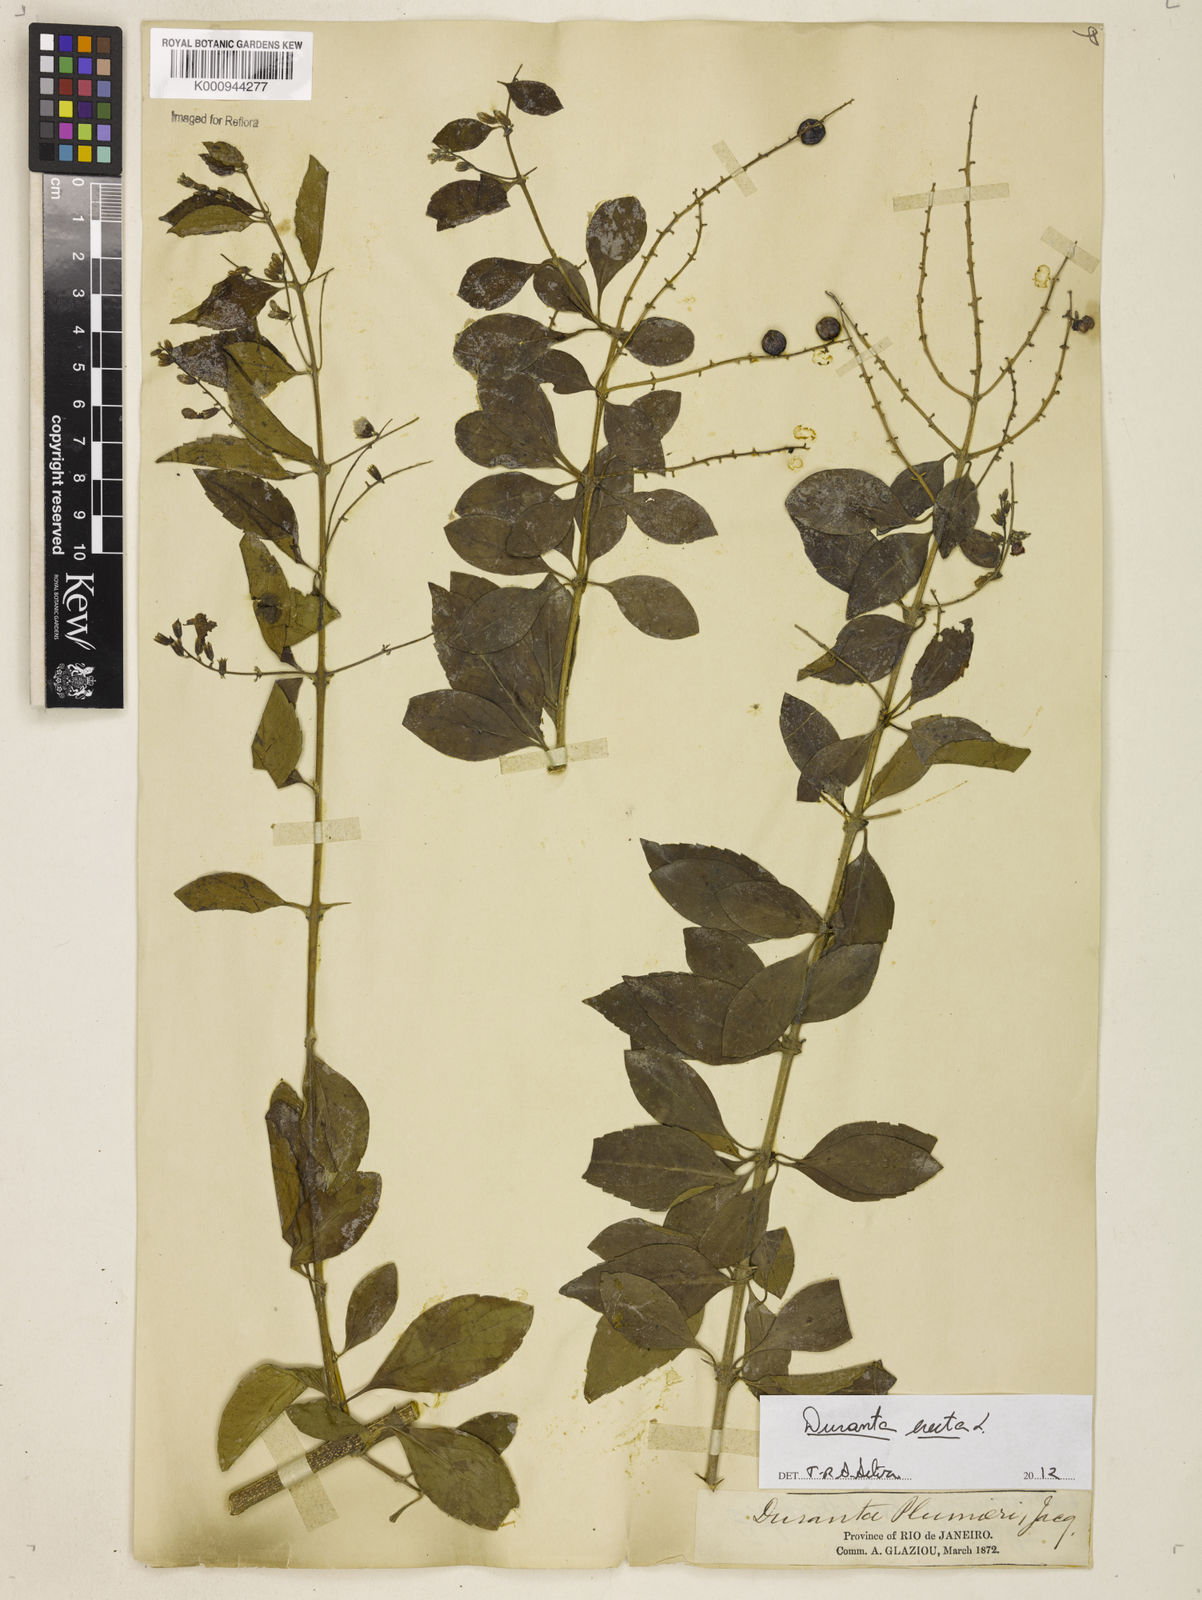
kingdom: Plantae
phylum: Tracheophyta
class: Magnoliopsida
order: Lamiales
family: Verbenaceae
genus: Citharexylum
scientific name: Citharexylum caudatum
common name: Fiddlewood
